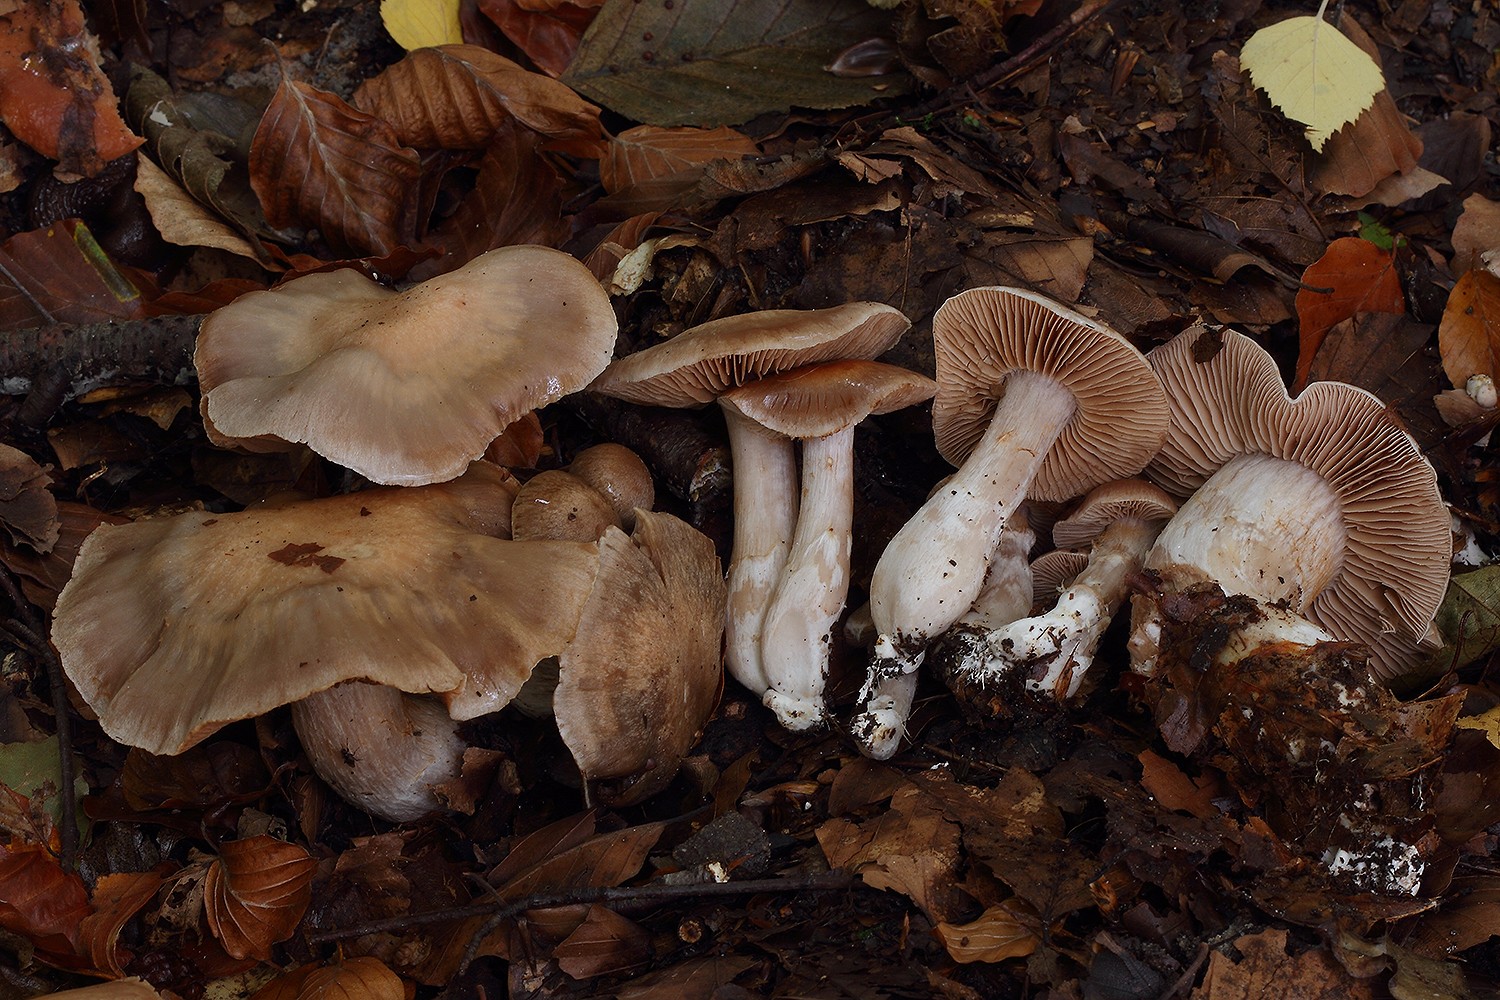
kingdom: Fungi
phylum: Basidiomycota
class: Agaricomycetes
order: Agaricales
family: Cortinariaceae
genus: Thaxterogaster
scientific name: Thaxterogaster barbatus
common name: elfenbens-slørhat
